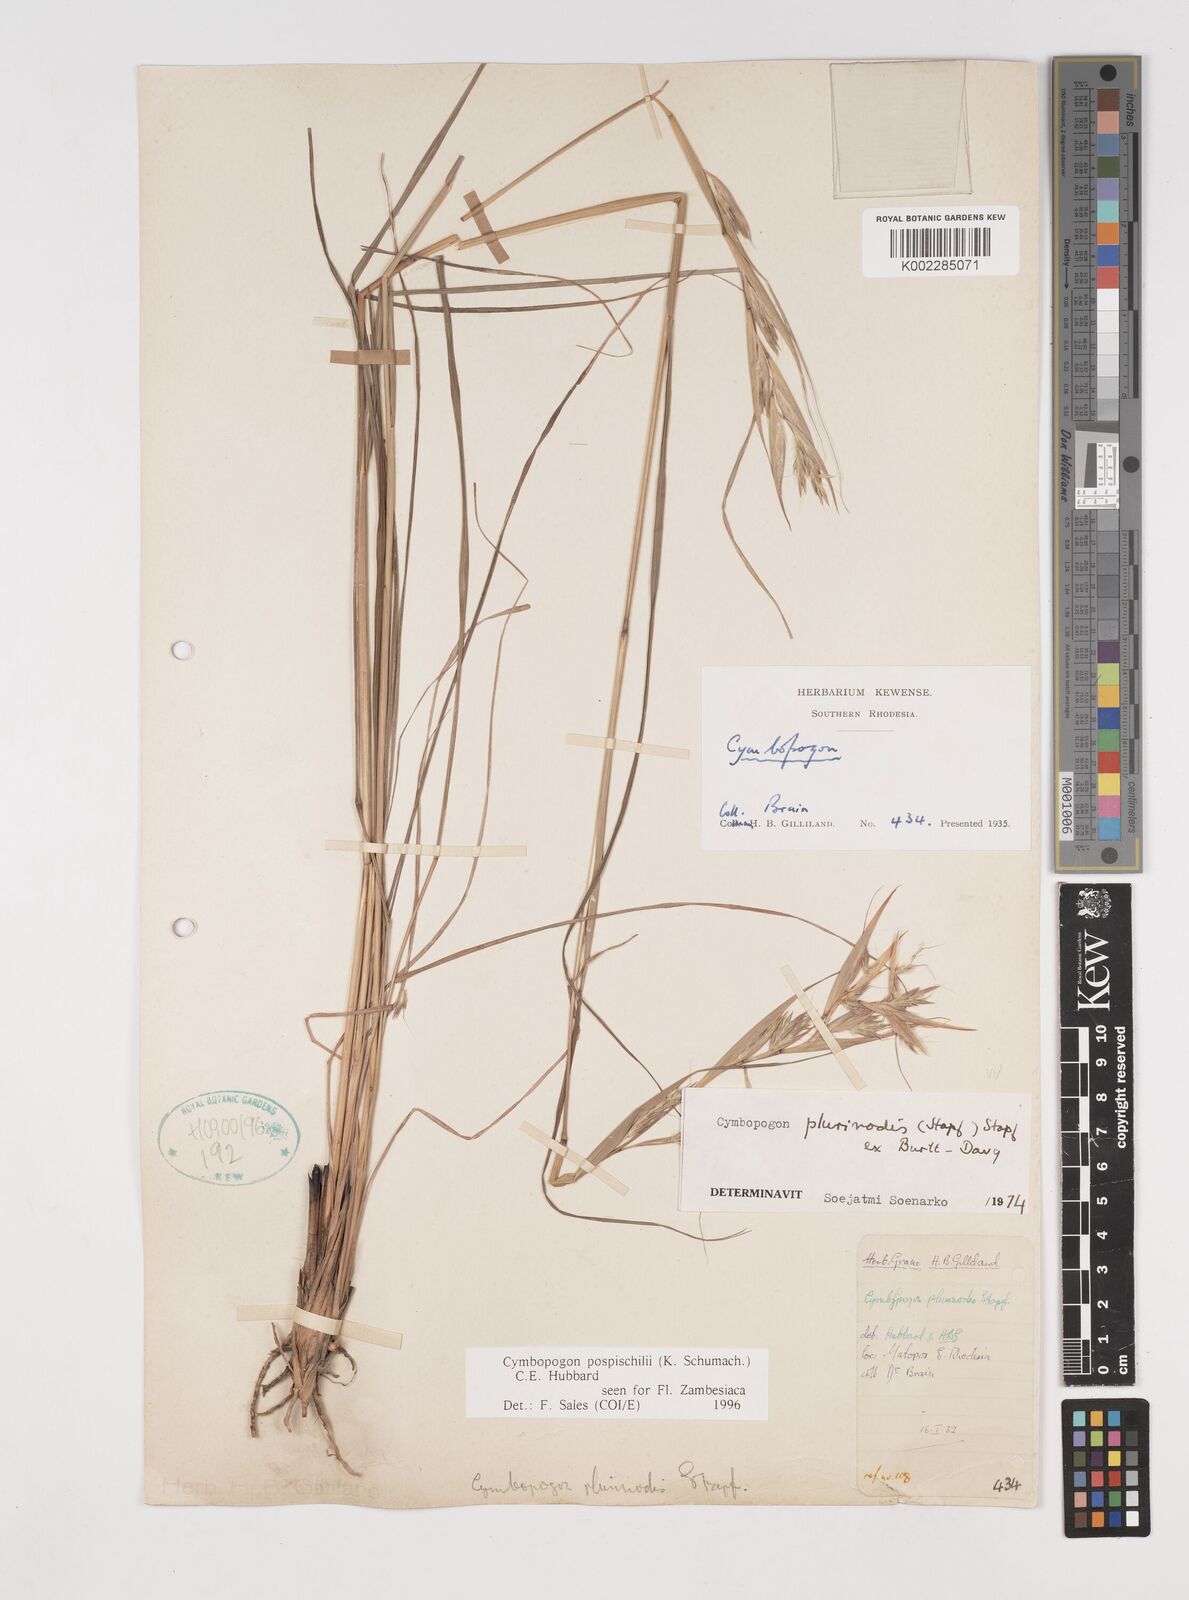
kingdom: Plantae
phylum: Tracheophyta
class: Liliopsida
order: Poales
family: Poaceae
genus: Cymbopogon
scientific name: Cymbopogon pospischilii
